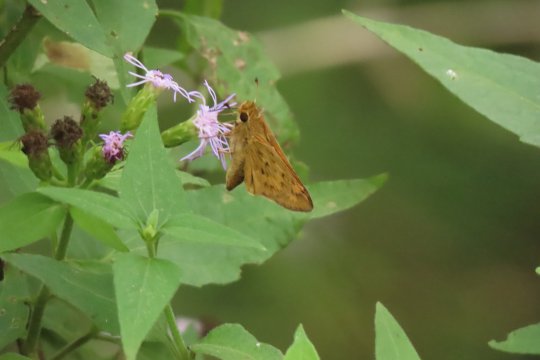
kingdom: Animalia
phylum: Arthropoda
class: Insecta
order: Lepidoptera
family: Hesperiidae
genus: Hylephila
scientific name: Hylephila phyleus
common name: Fiery Skipper
